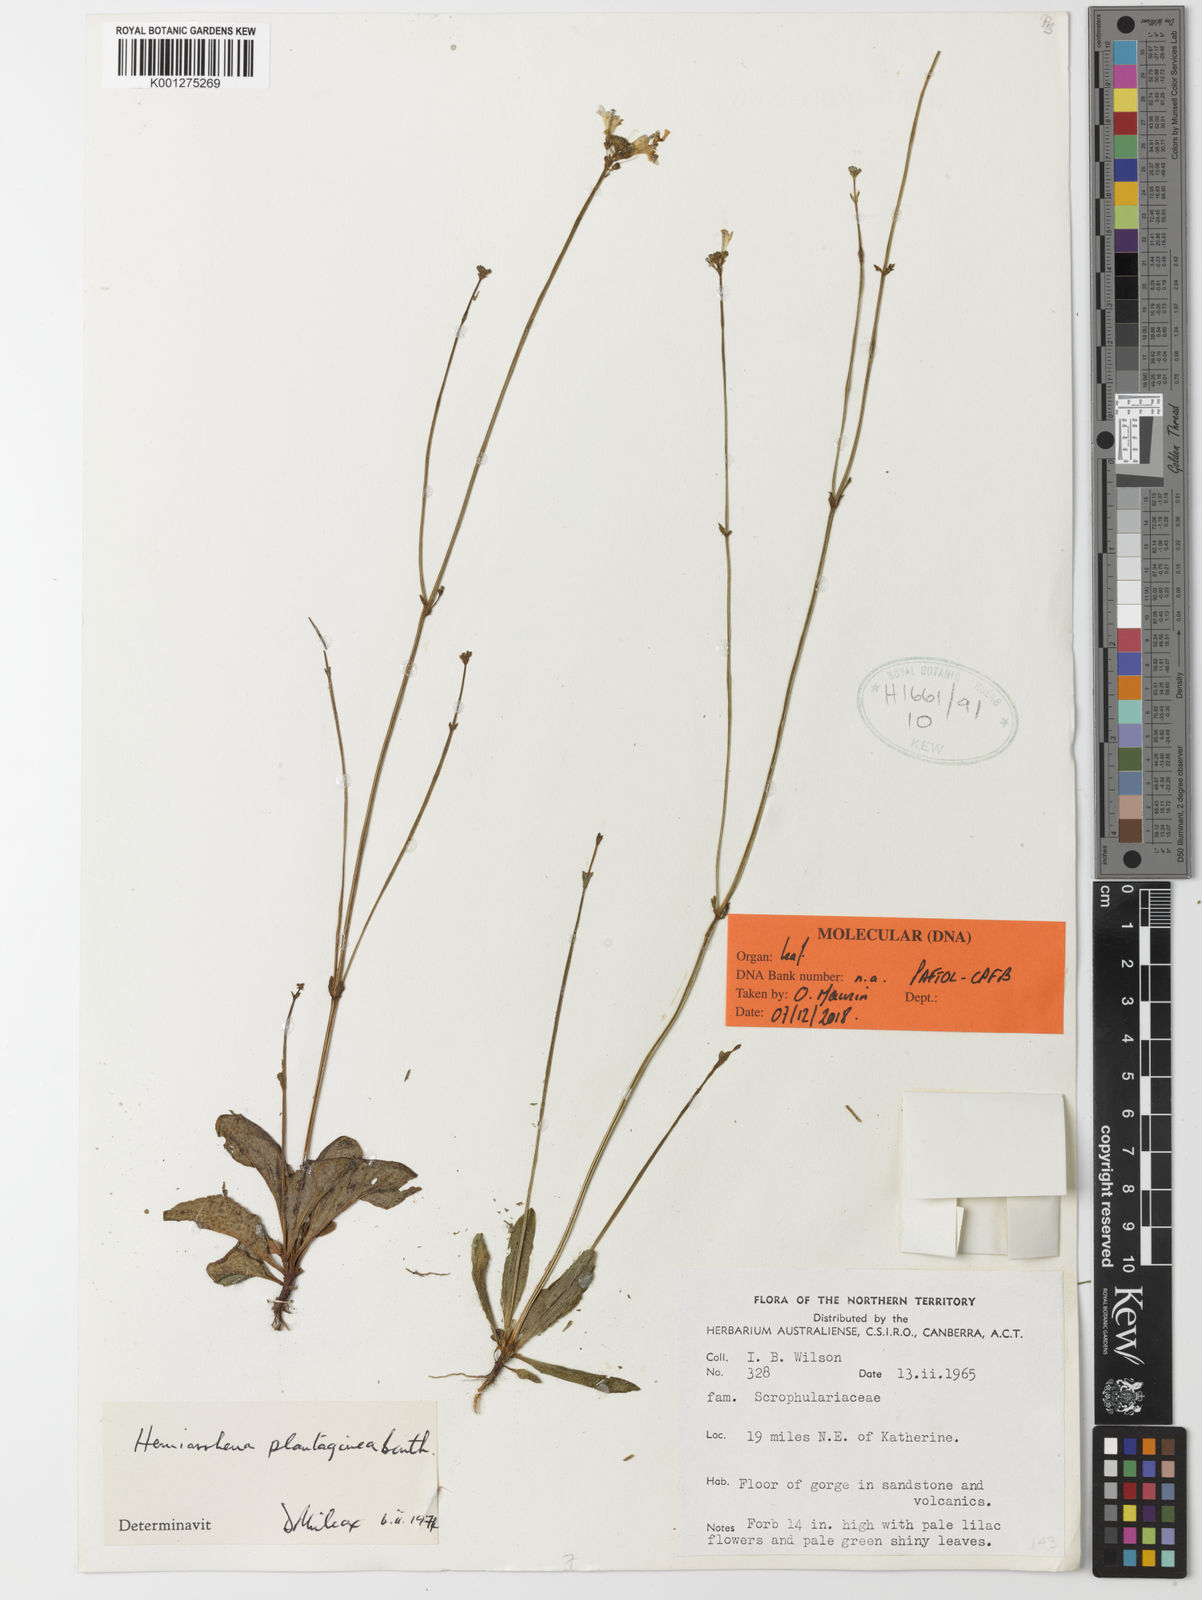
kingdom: Plantae
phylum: Tracheophyta
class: Magnoliopsida
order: Lamiales
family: Linderniaceae
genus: Hemiarrhena
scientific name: Hemiarrhena plantaginea
